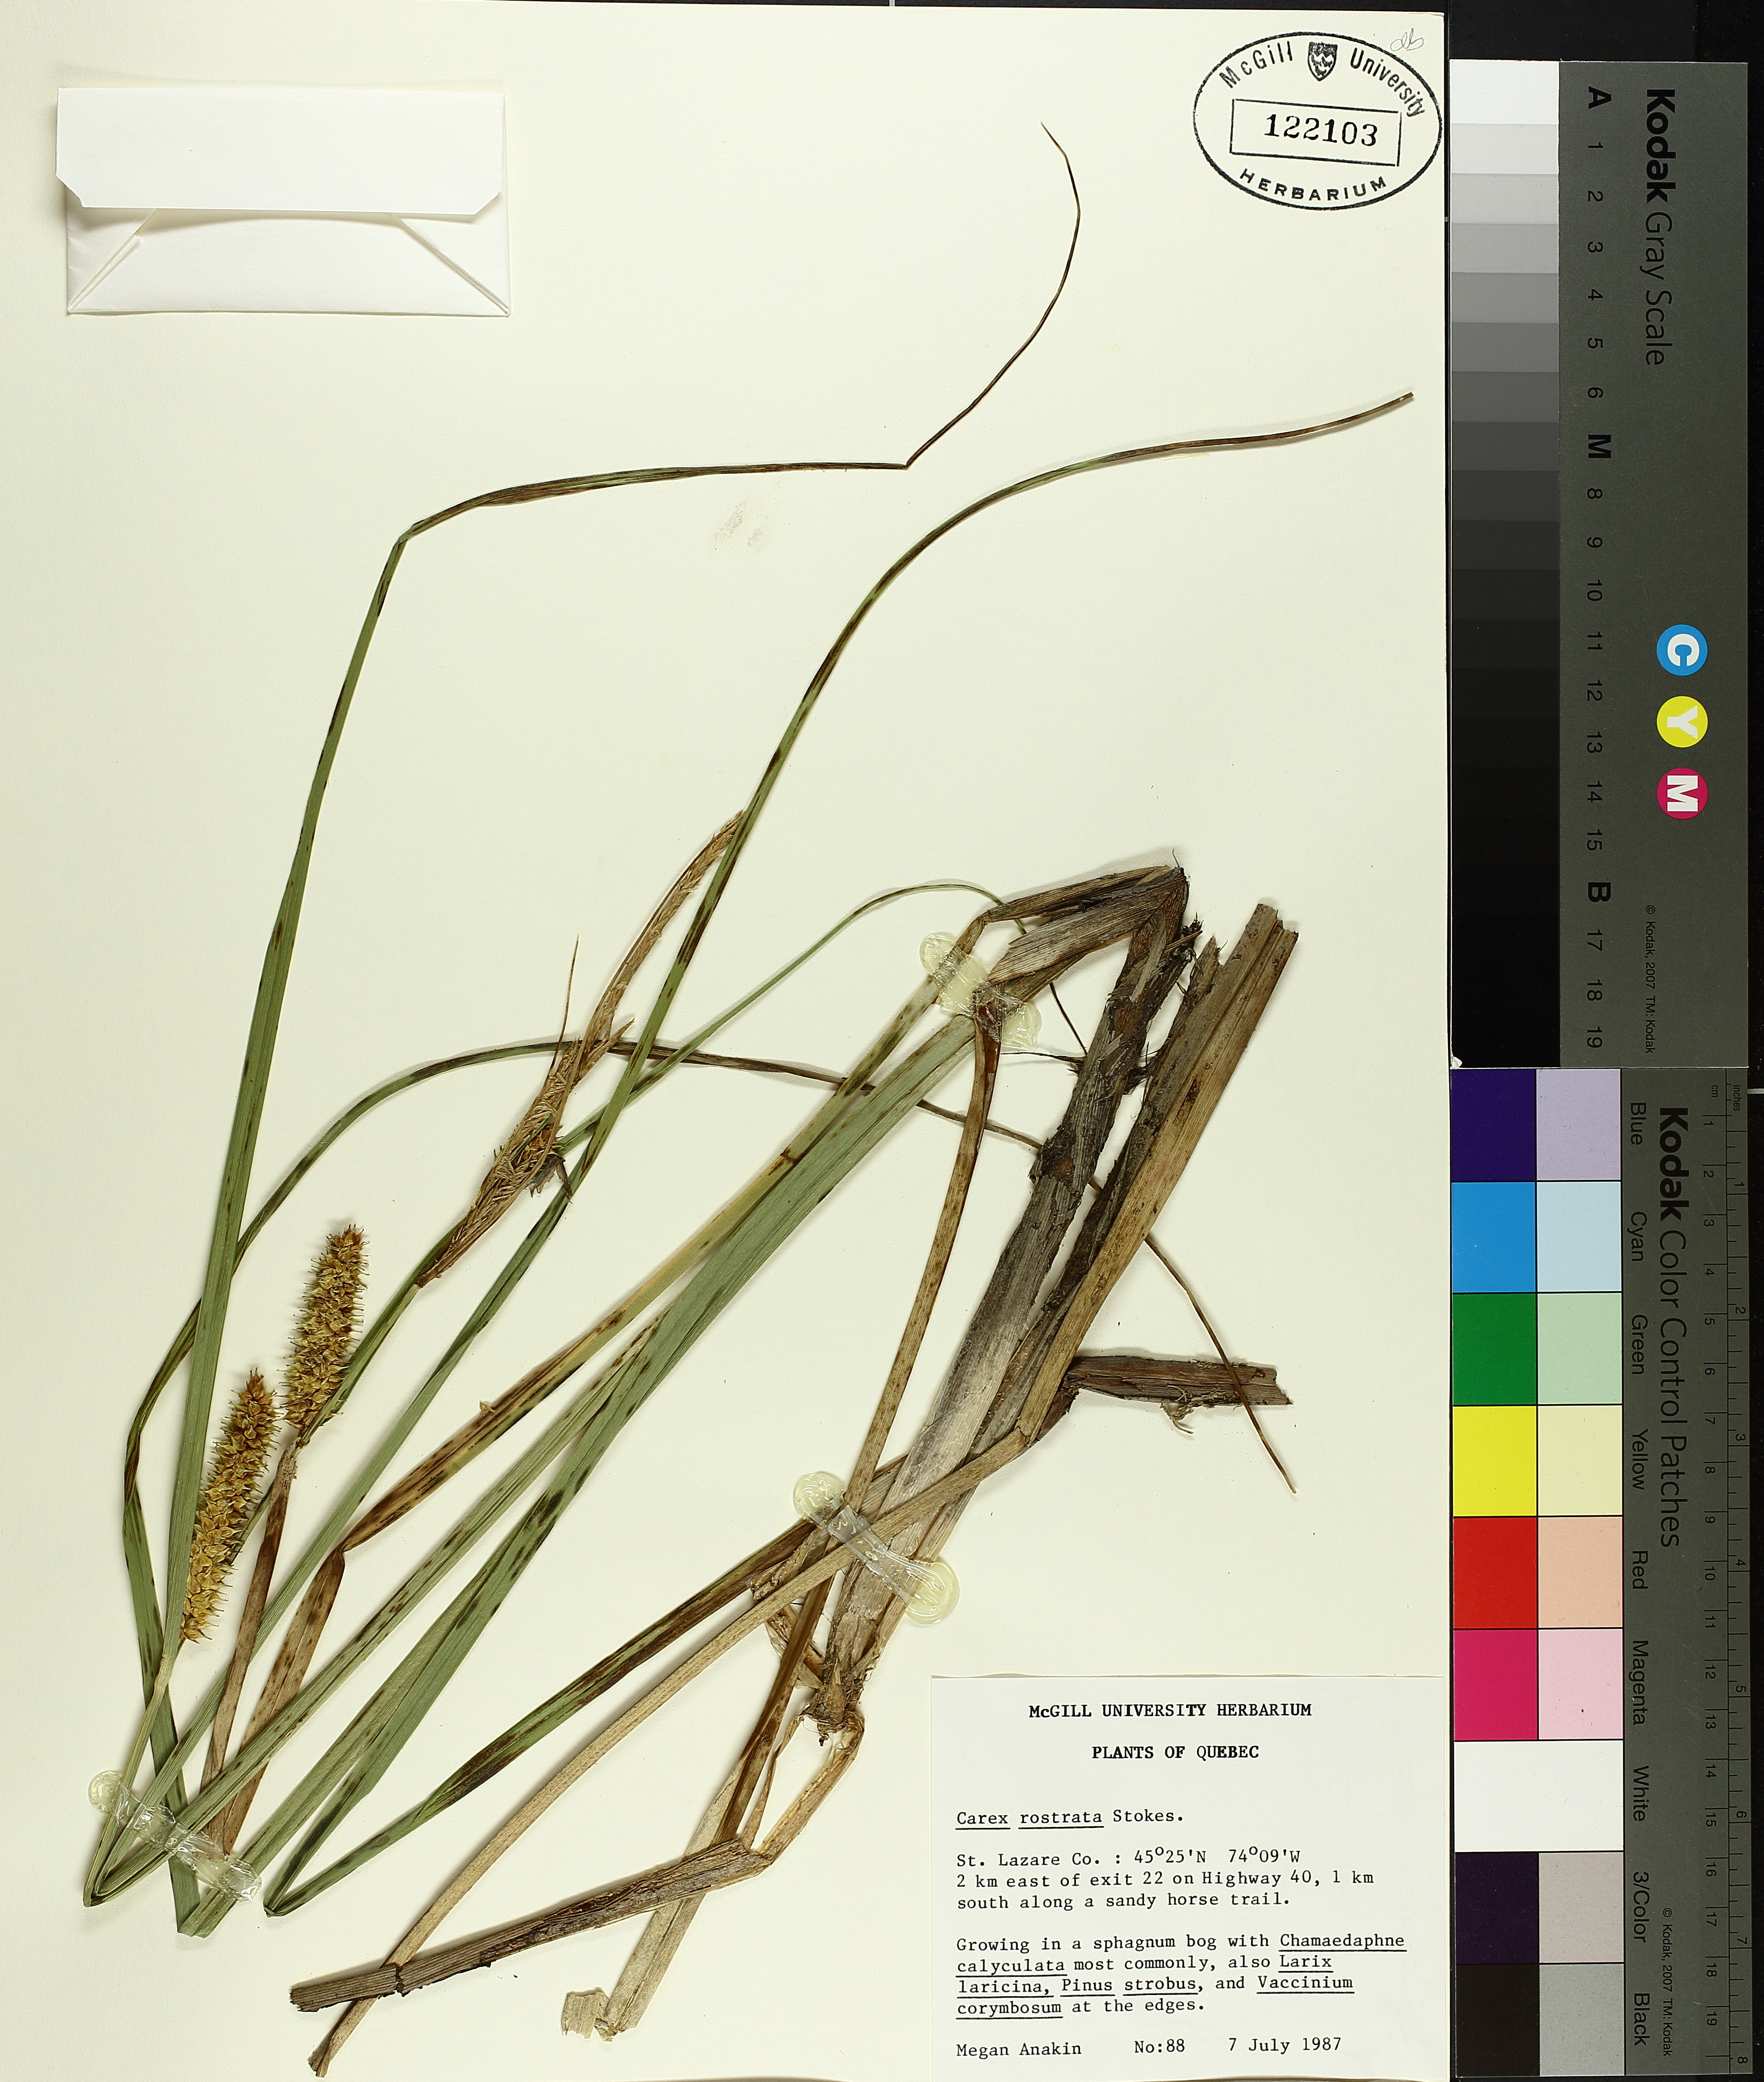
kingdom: Plantae
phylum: Tracheophyta
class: Liliopsida
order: Poales
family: Cyperaceae
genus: Carex
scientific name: Carex rostrata
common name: Bottle sedge
